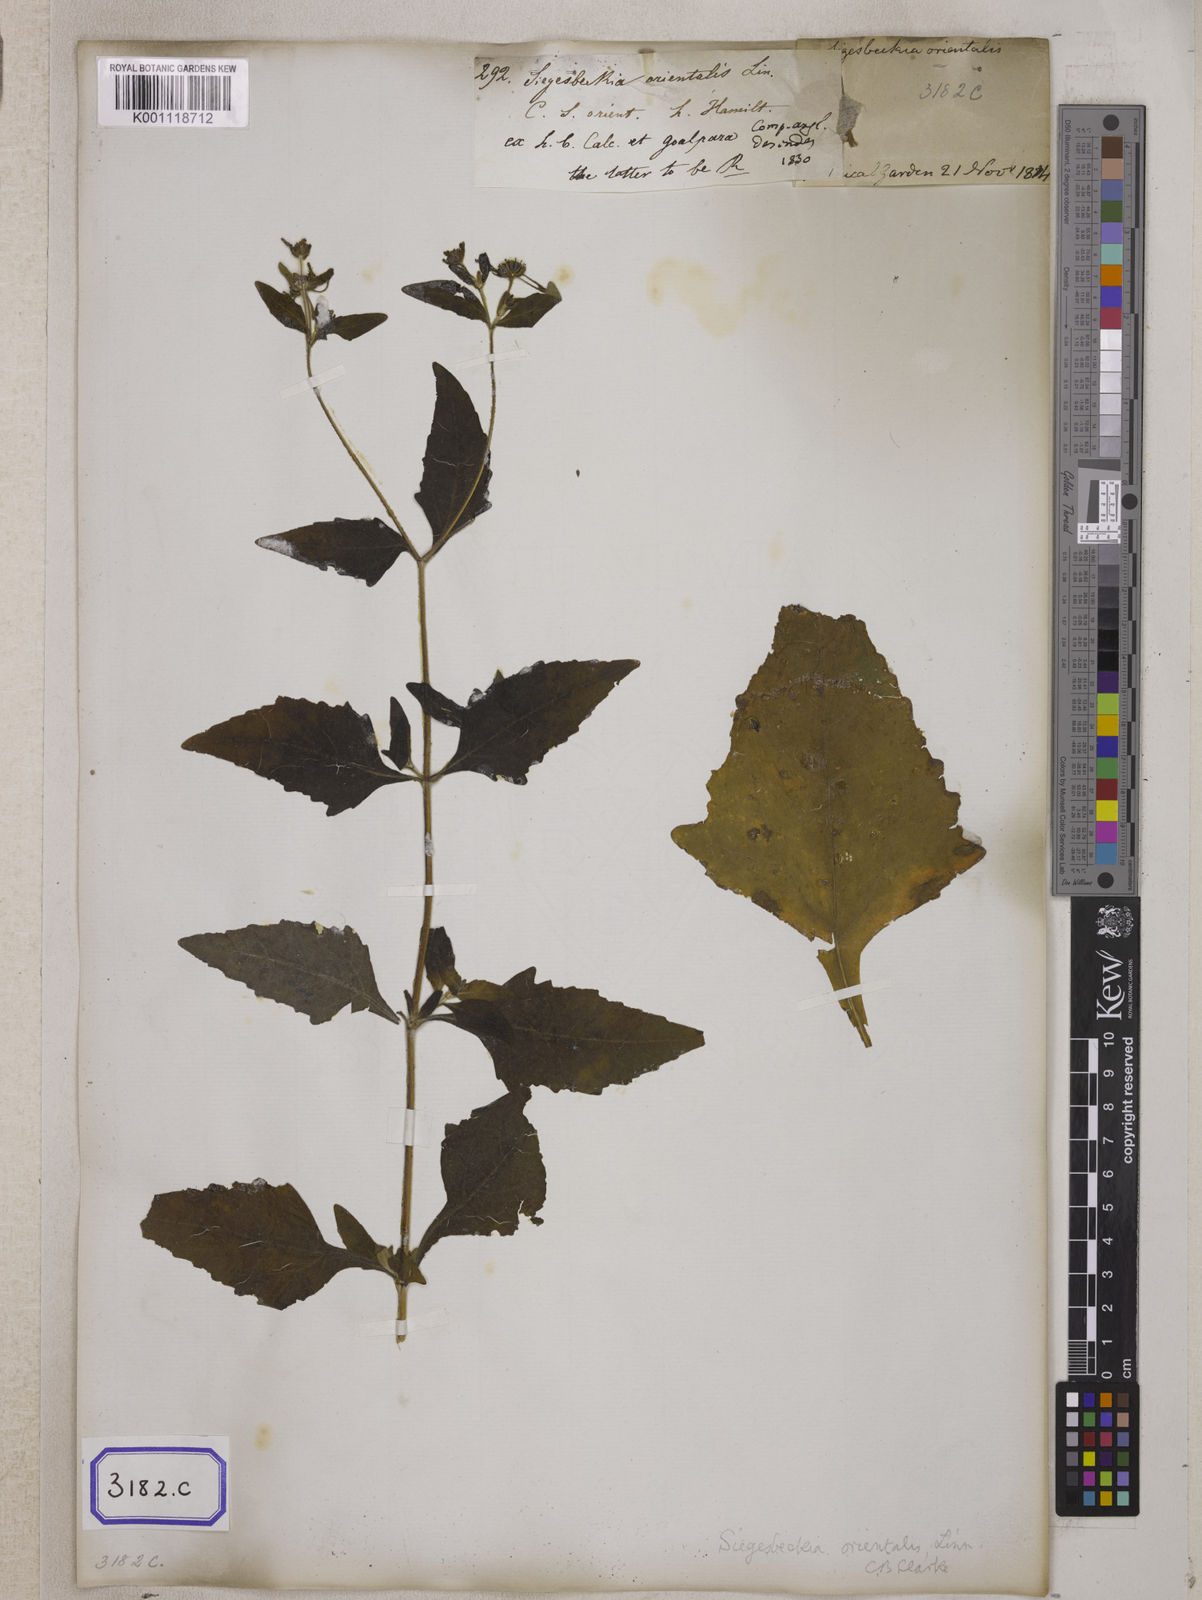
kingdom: Plantae
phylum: Tracheophyta
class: Magnoliopsida
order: Asterales
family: Asteraceae
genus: Sigesbeckia
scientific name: Sigesbeckia orientalis
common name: Eastern st paul's-wort
